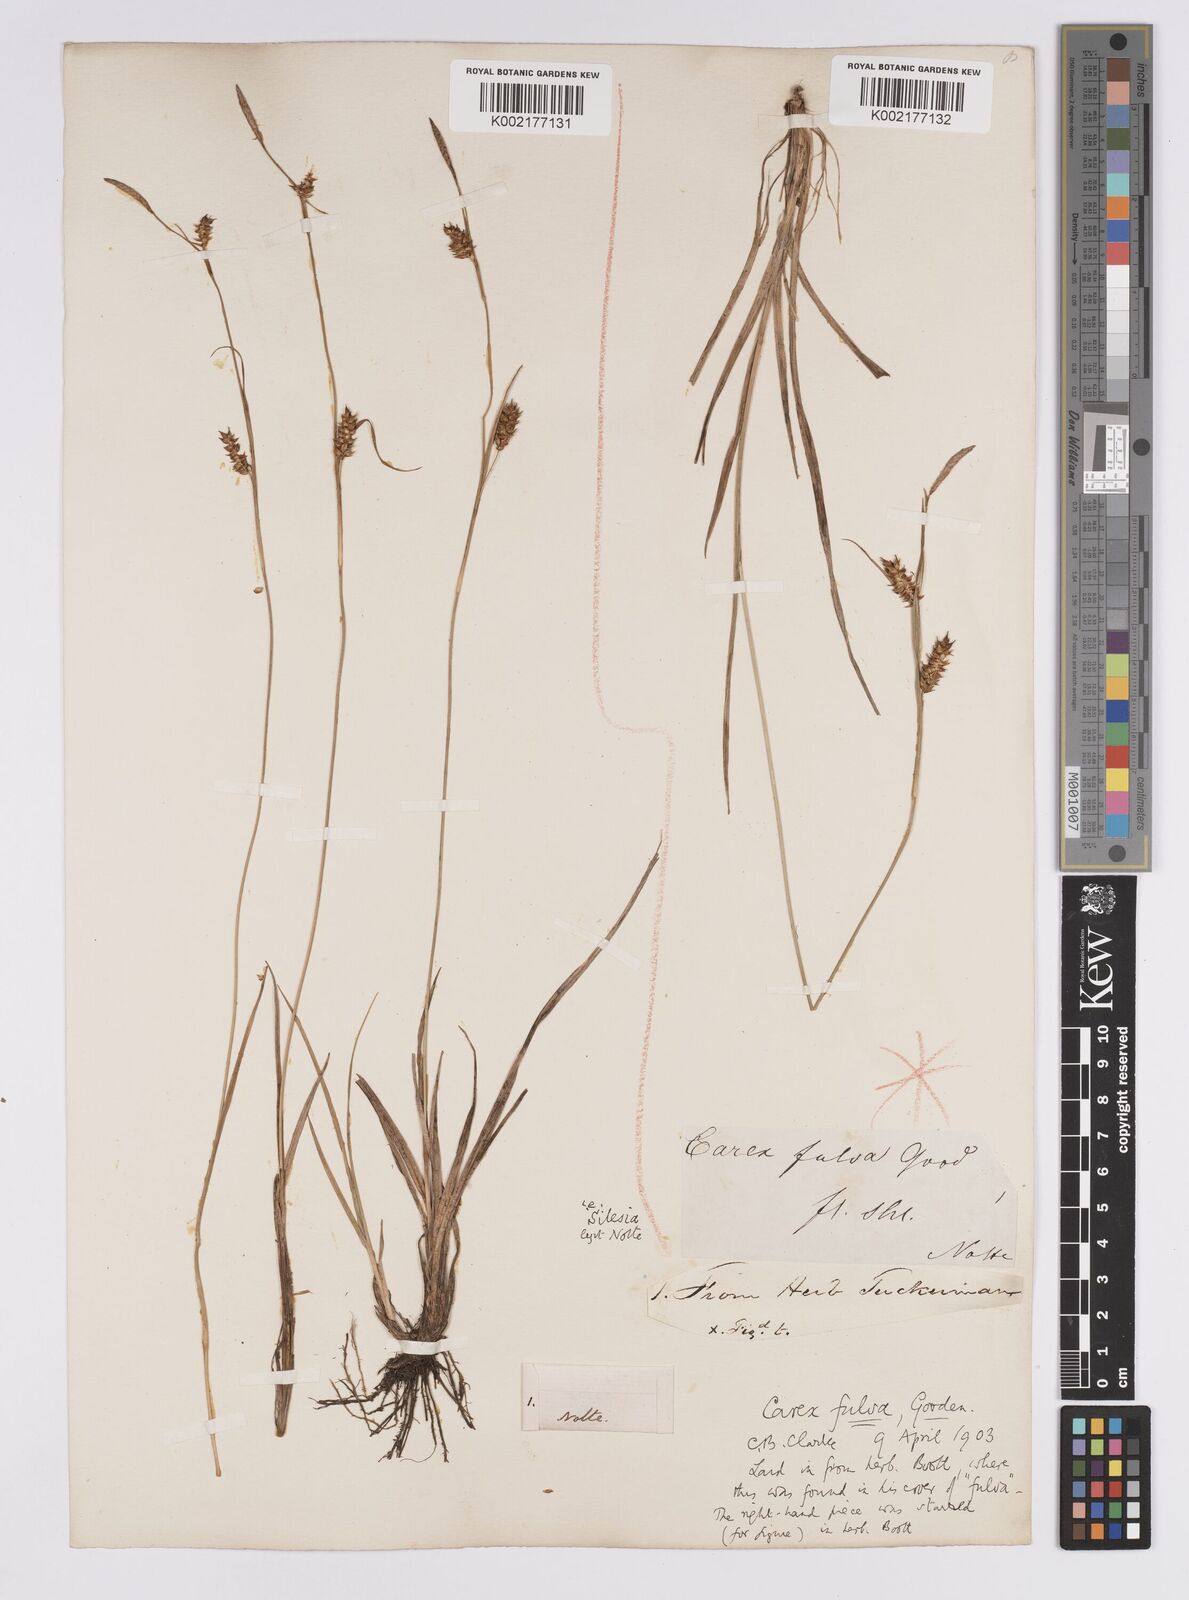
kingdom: Plantae
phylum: Tracheophyta
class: Liliopsida
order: Poales
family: Cyperaceae
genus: Carex
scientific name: Carex hostiana
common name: Tawny sedge
